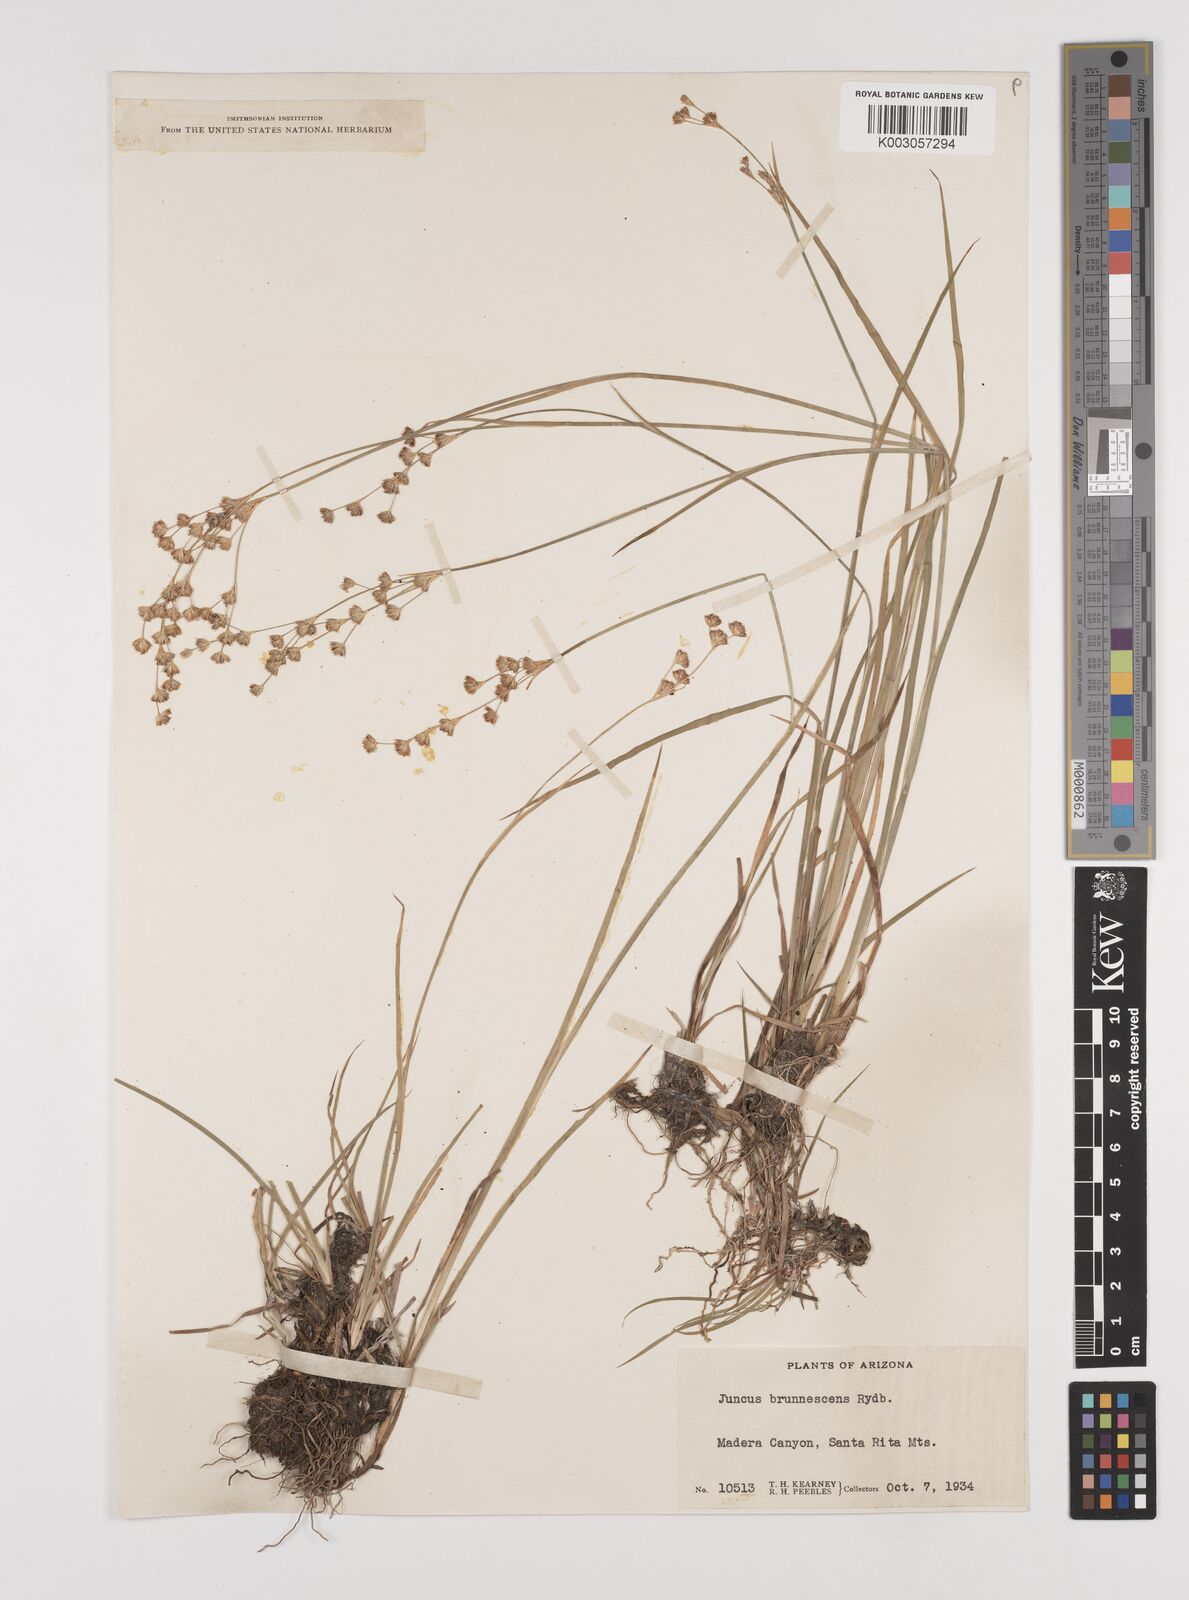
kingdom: Plantae
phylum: Tracheophyta
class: Liliopsida
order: Poales
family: Juncaceae
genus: Juncus
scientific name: Juncus saximontanus
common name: Rocky mountain rush
